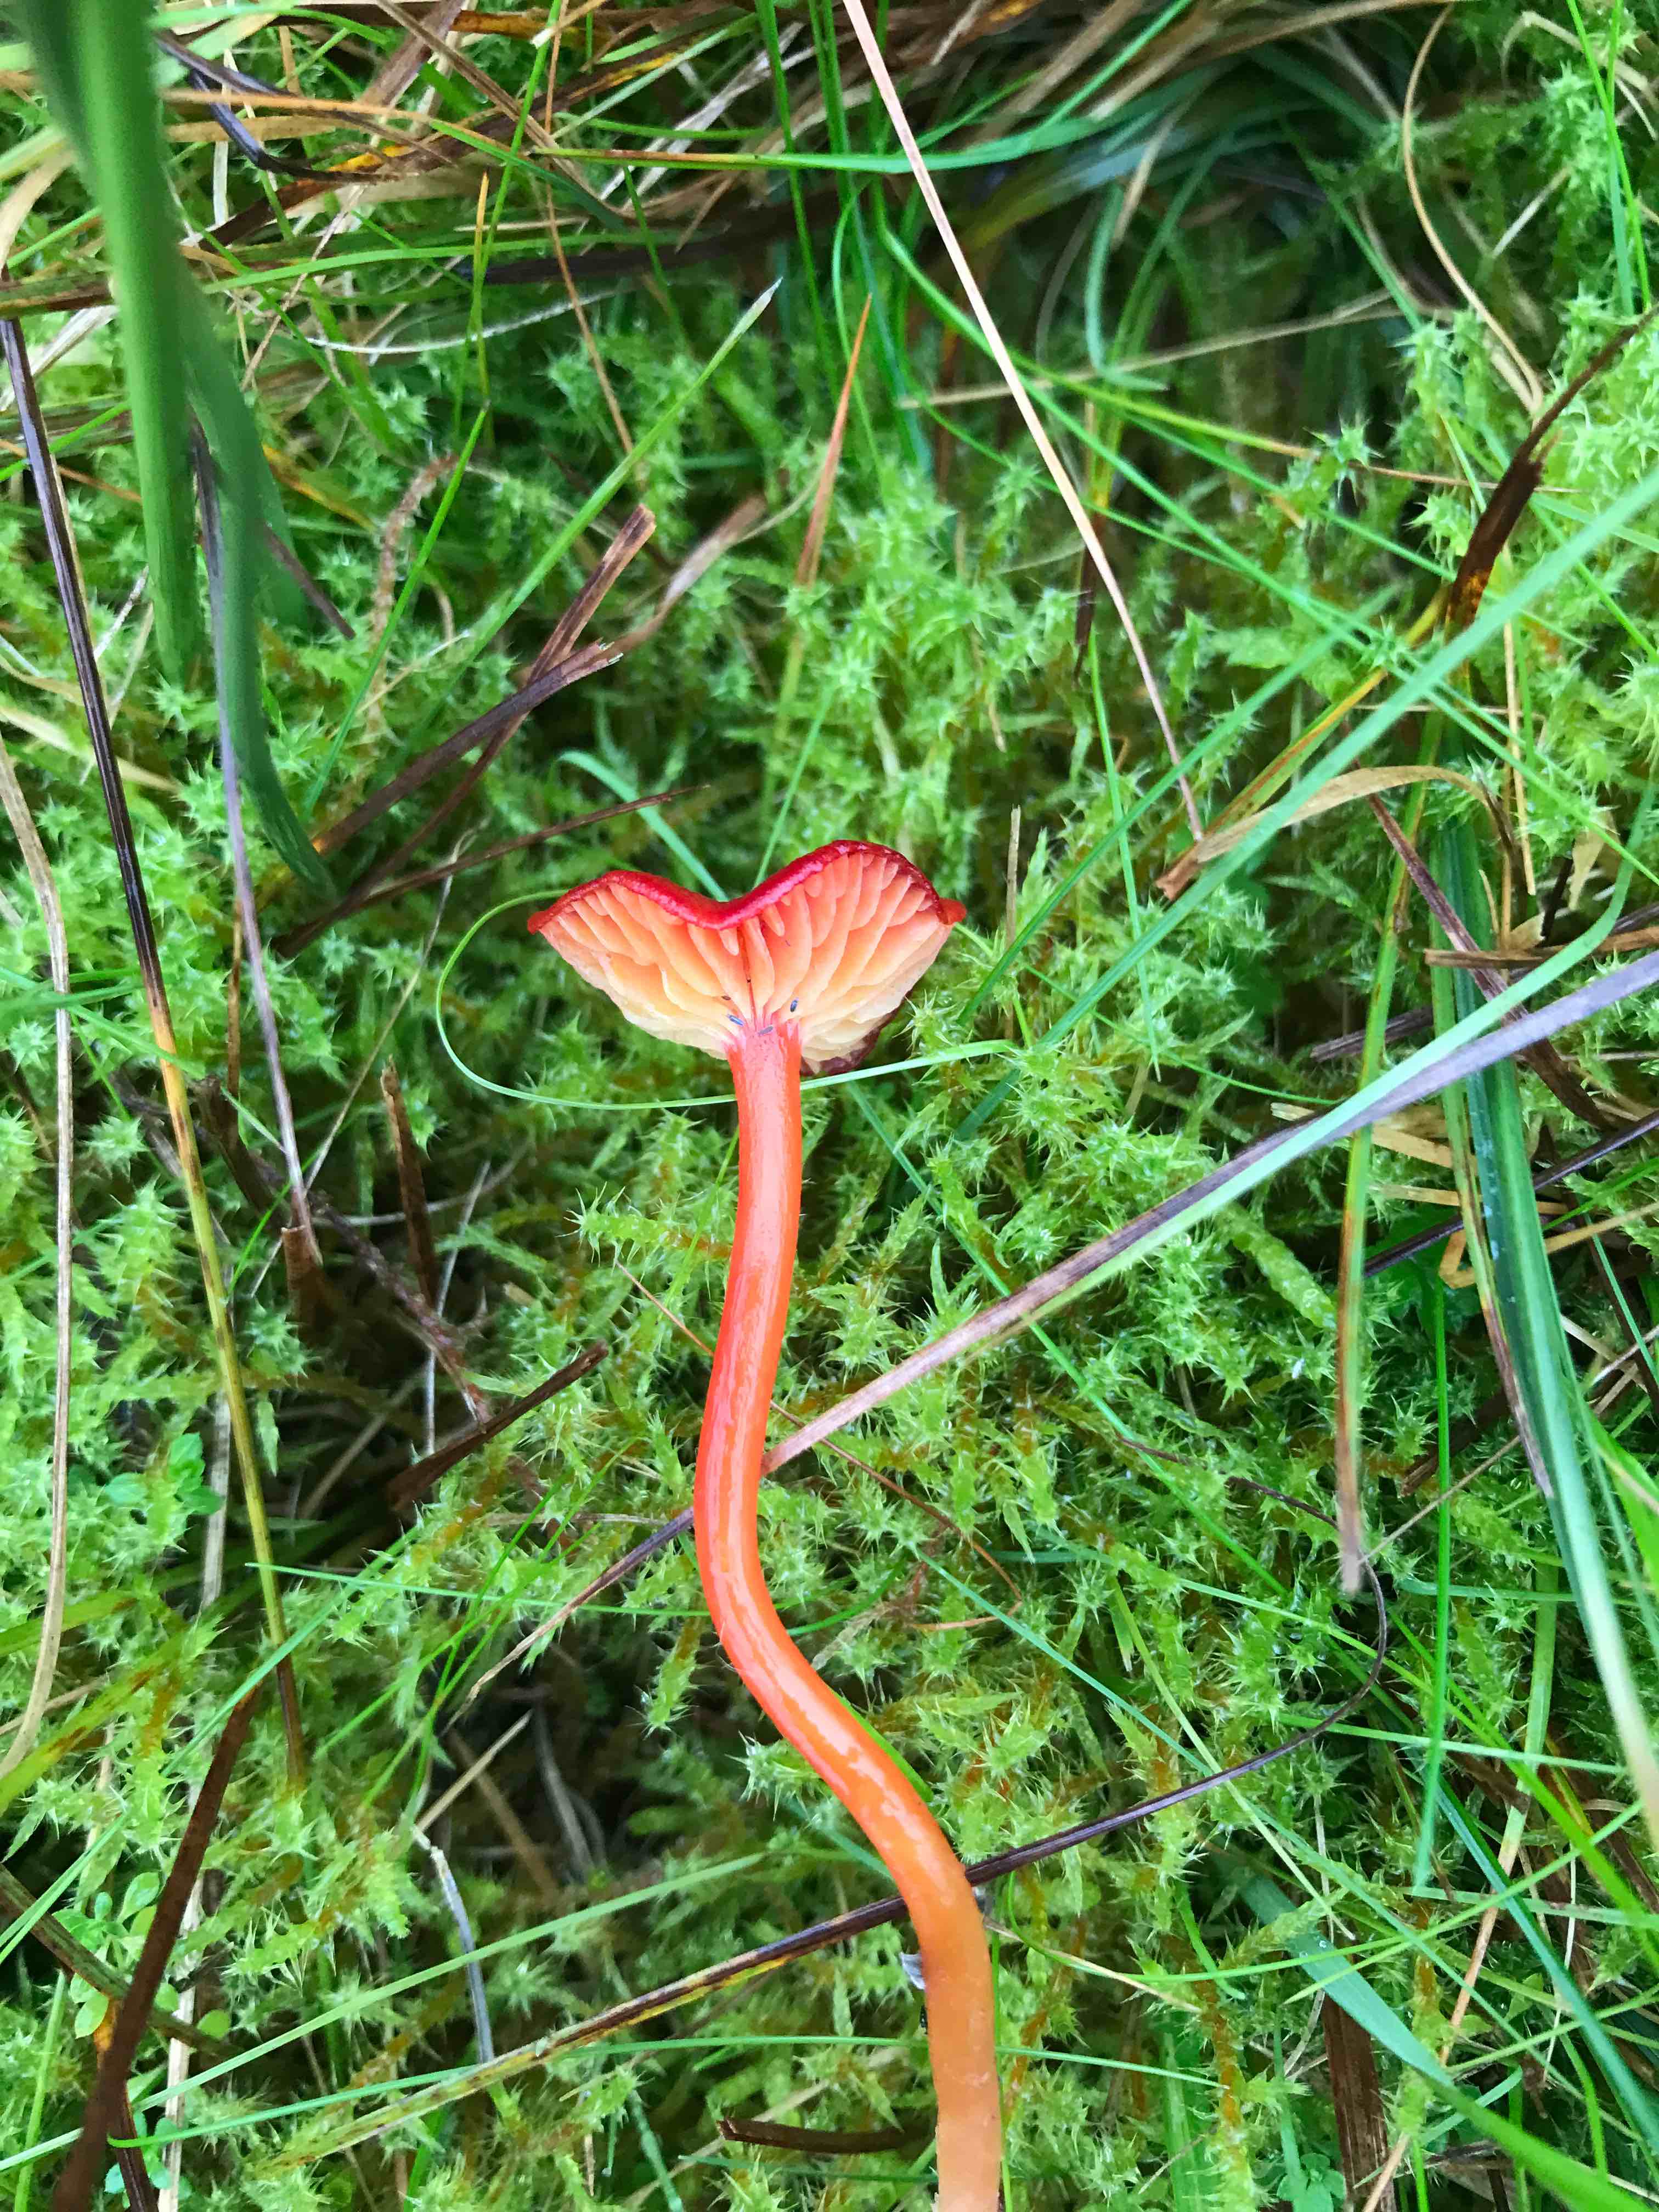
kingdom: Fungi
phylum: Basidiomycota
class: Agaricomycetes
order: Agaricales
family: Hygrophoraceae
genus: Hygrocybe
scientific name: Hygrocybe helobia
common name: hvidløgs-vokshat
